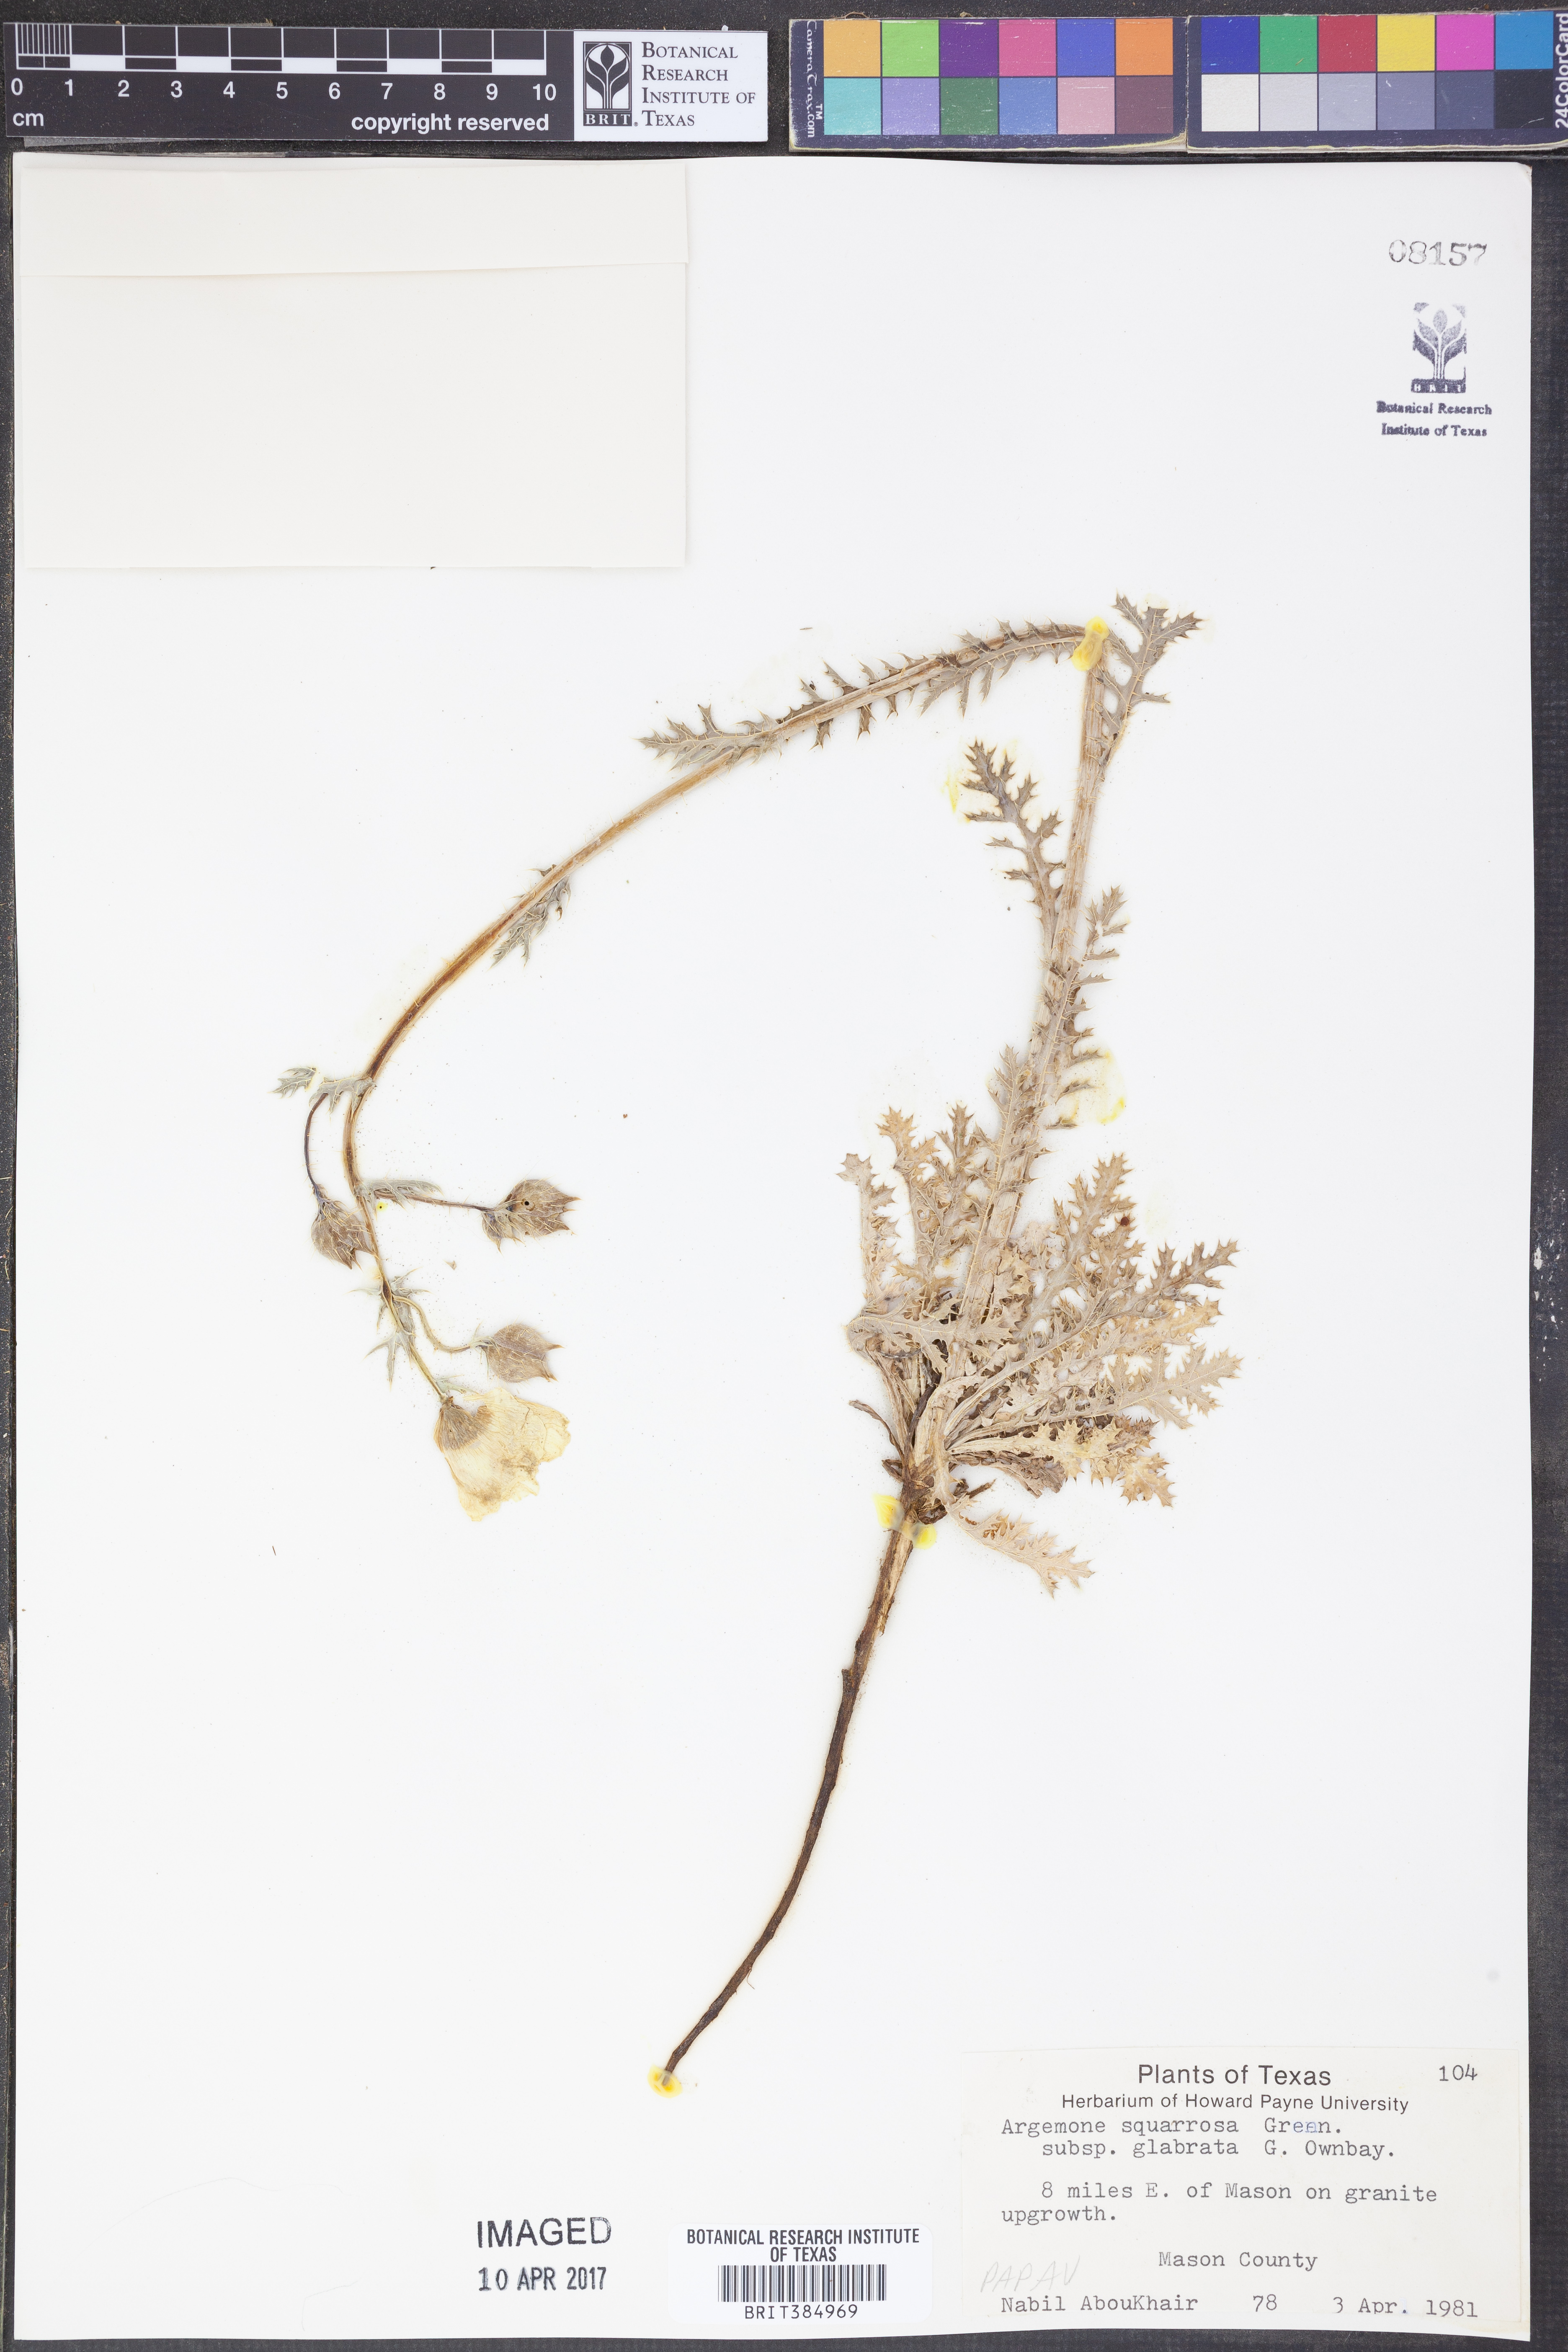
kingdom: Plantae
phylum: Tracheophyta
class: Magnoliopsida
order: Ranunculales
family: Papaveraceae
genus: Argemone
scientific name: Argemone squarrosa
